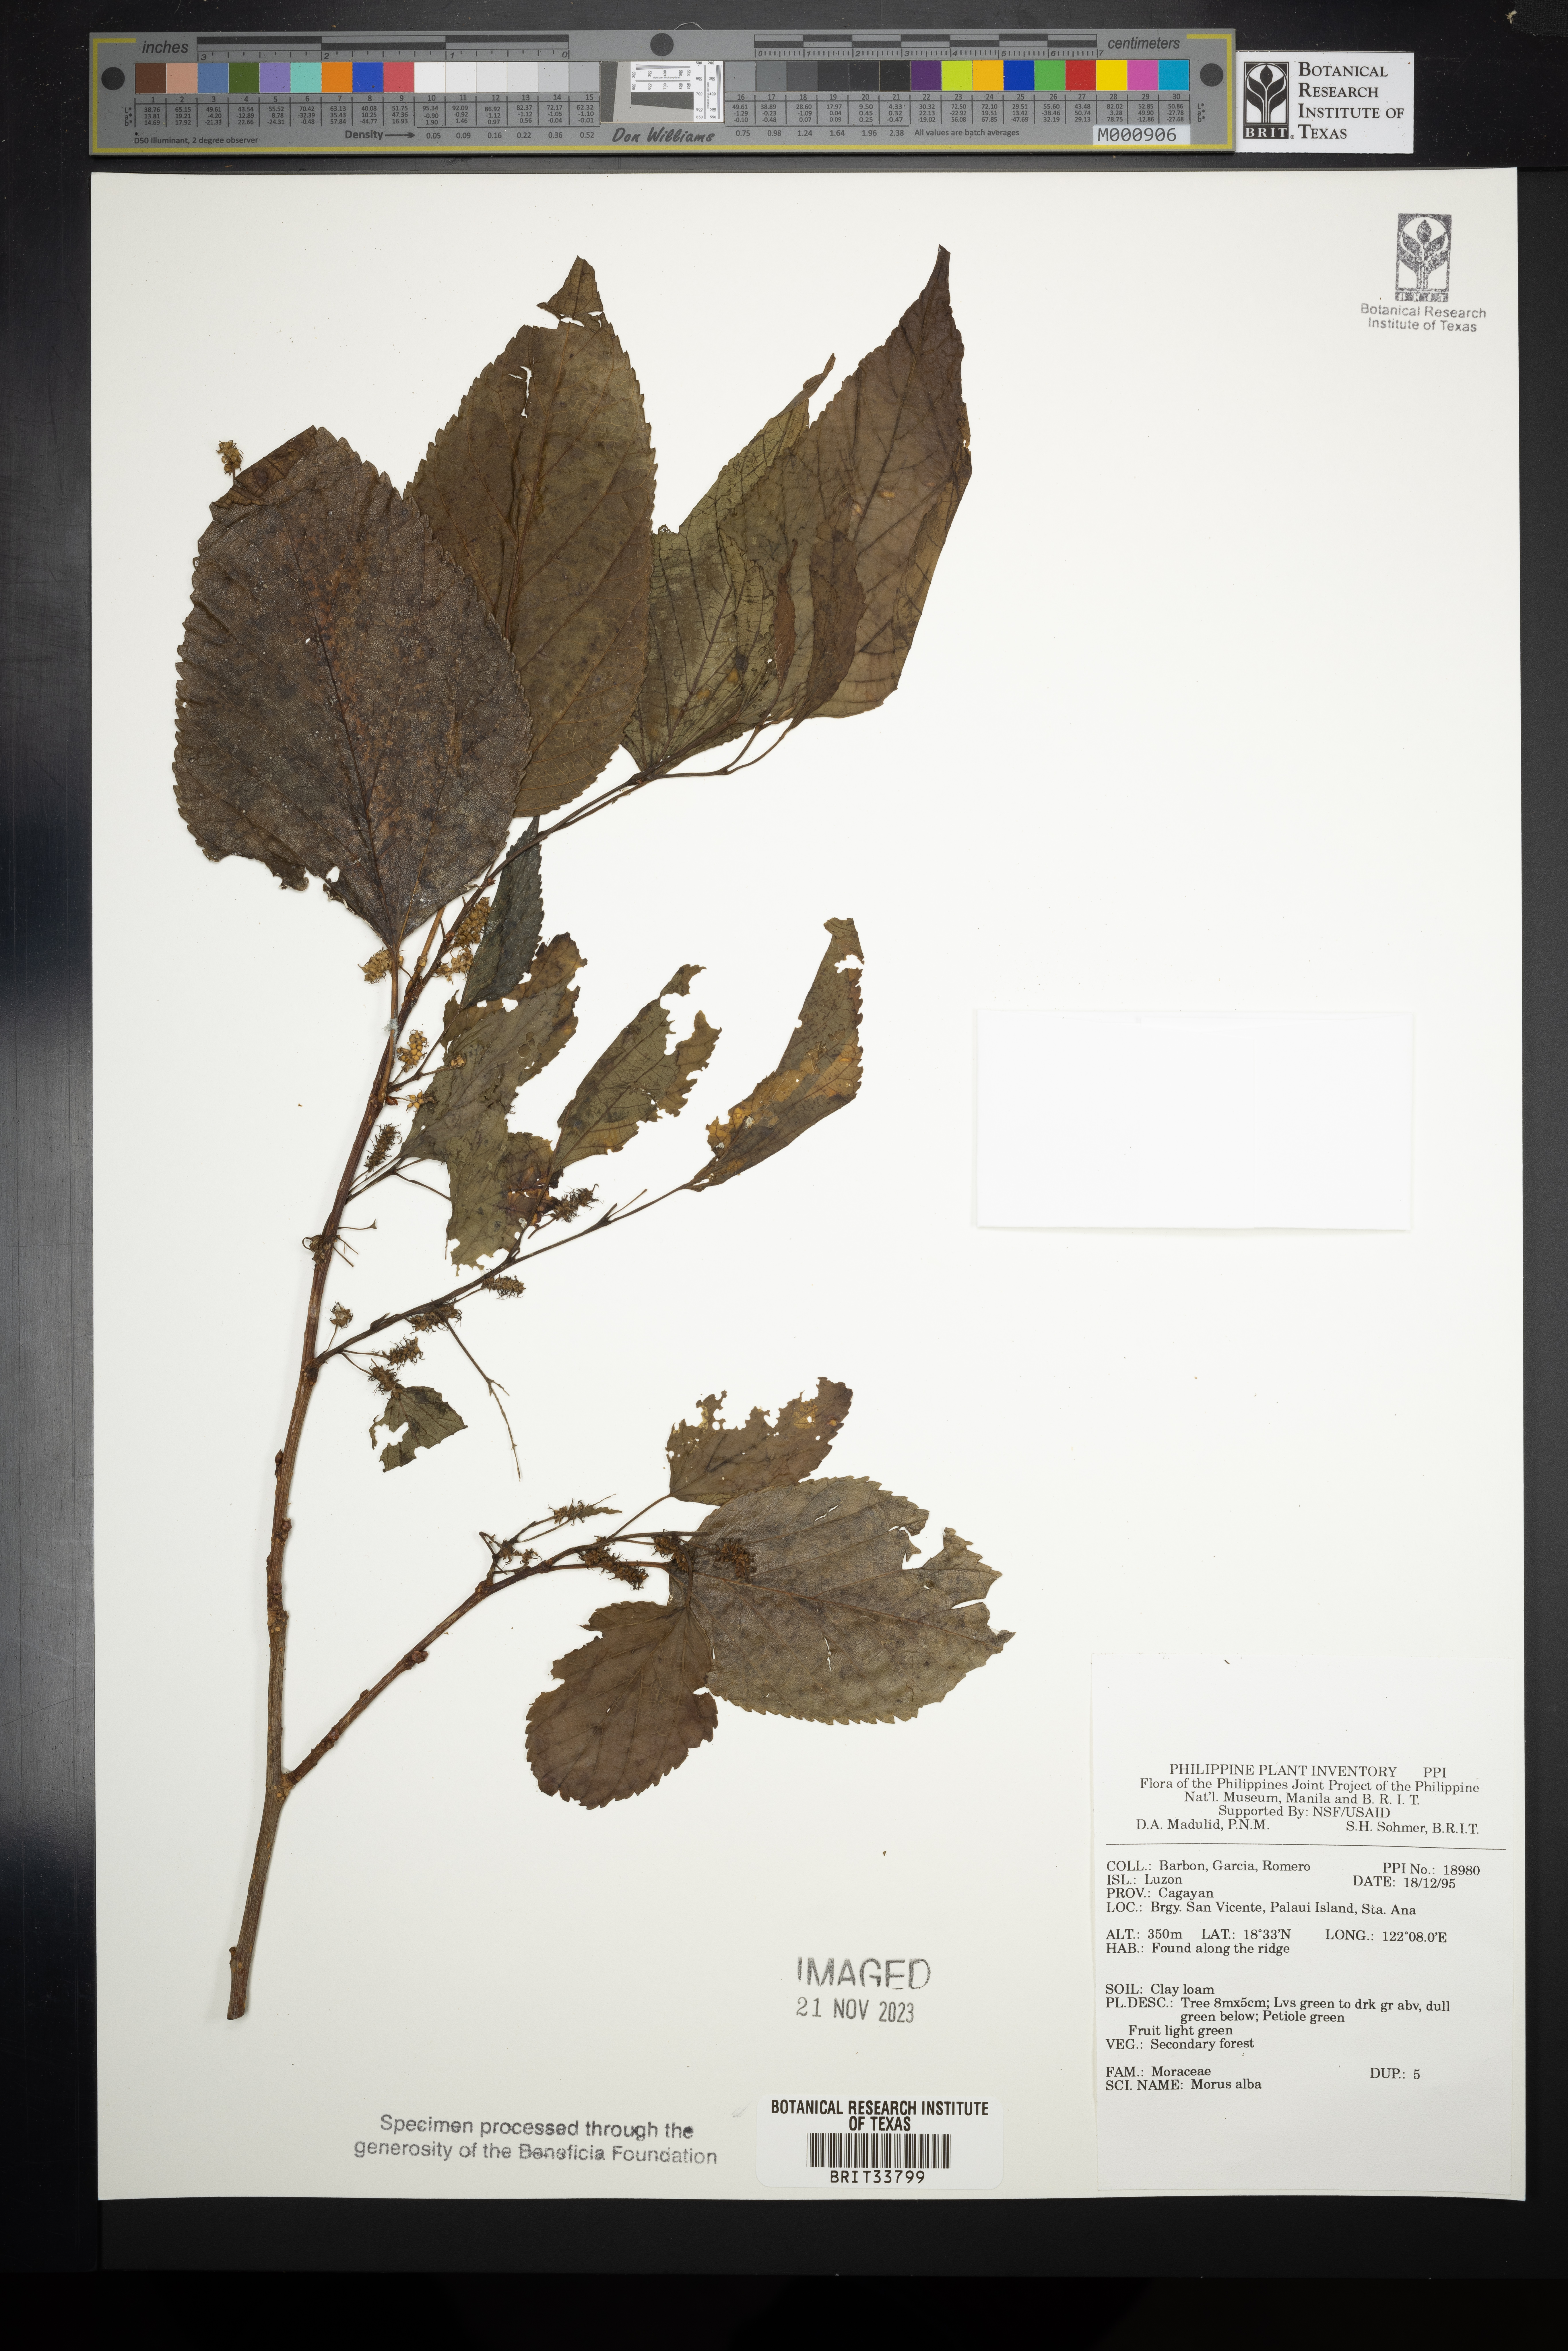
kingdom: Plantae
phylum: Tracheophyta
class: Magnoliopsida
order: Rosales
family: Moraceae
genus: Morus
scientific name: Morus alba
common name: White mulberry
